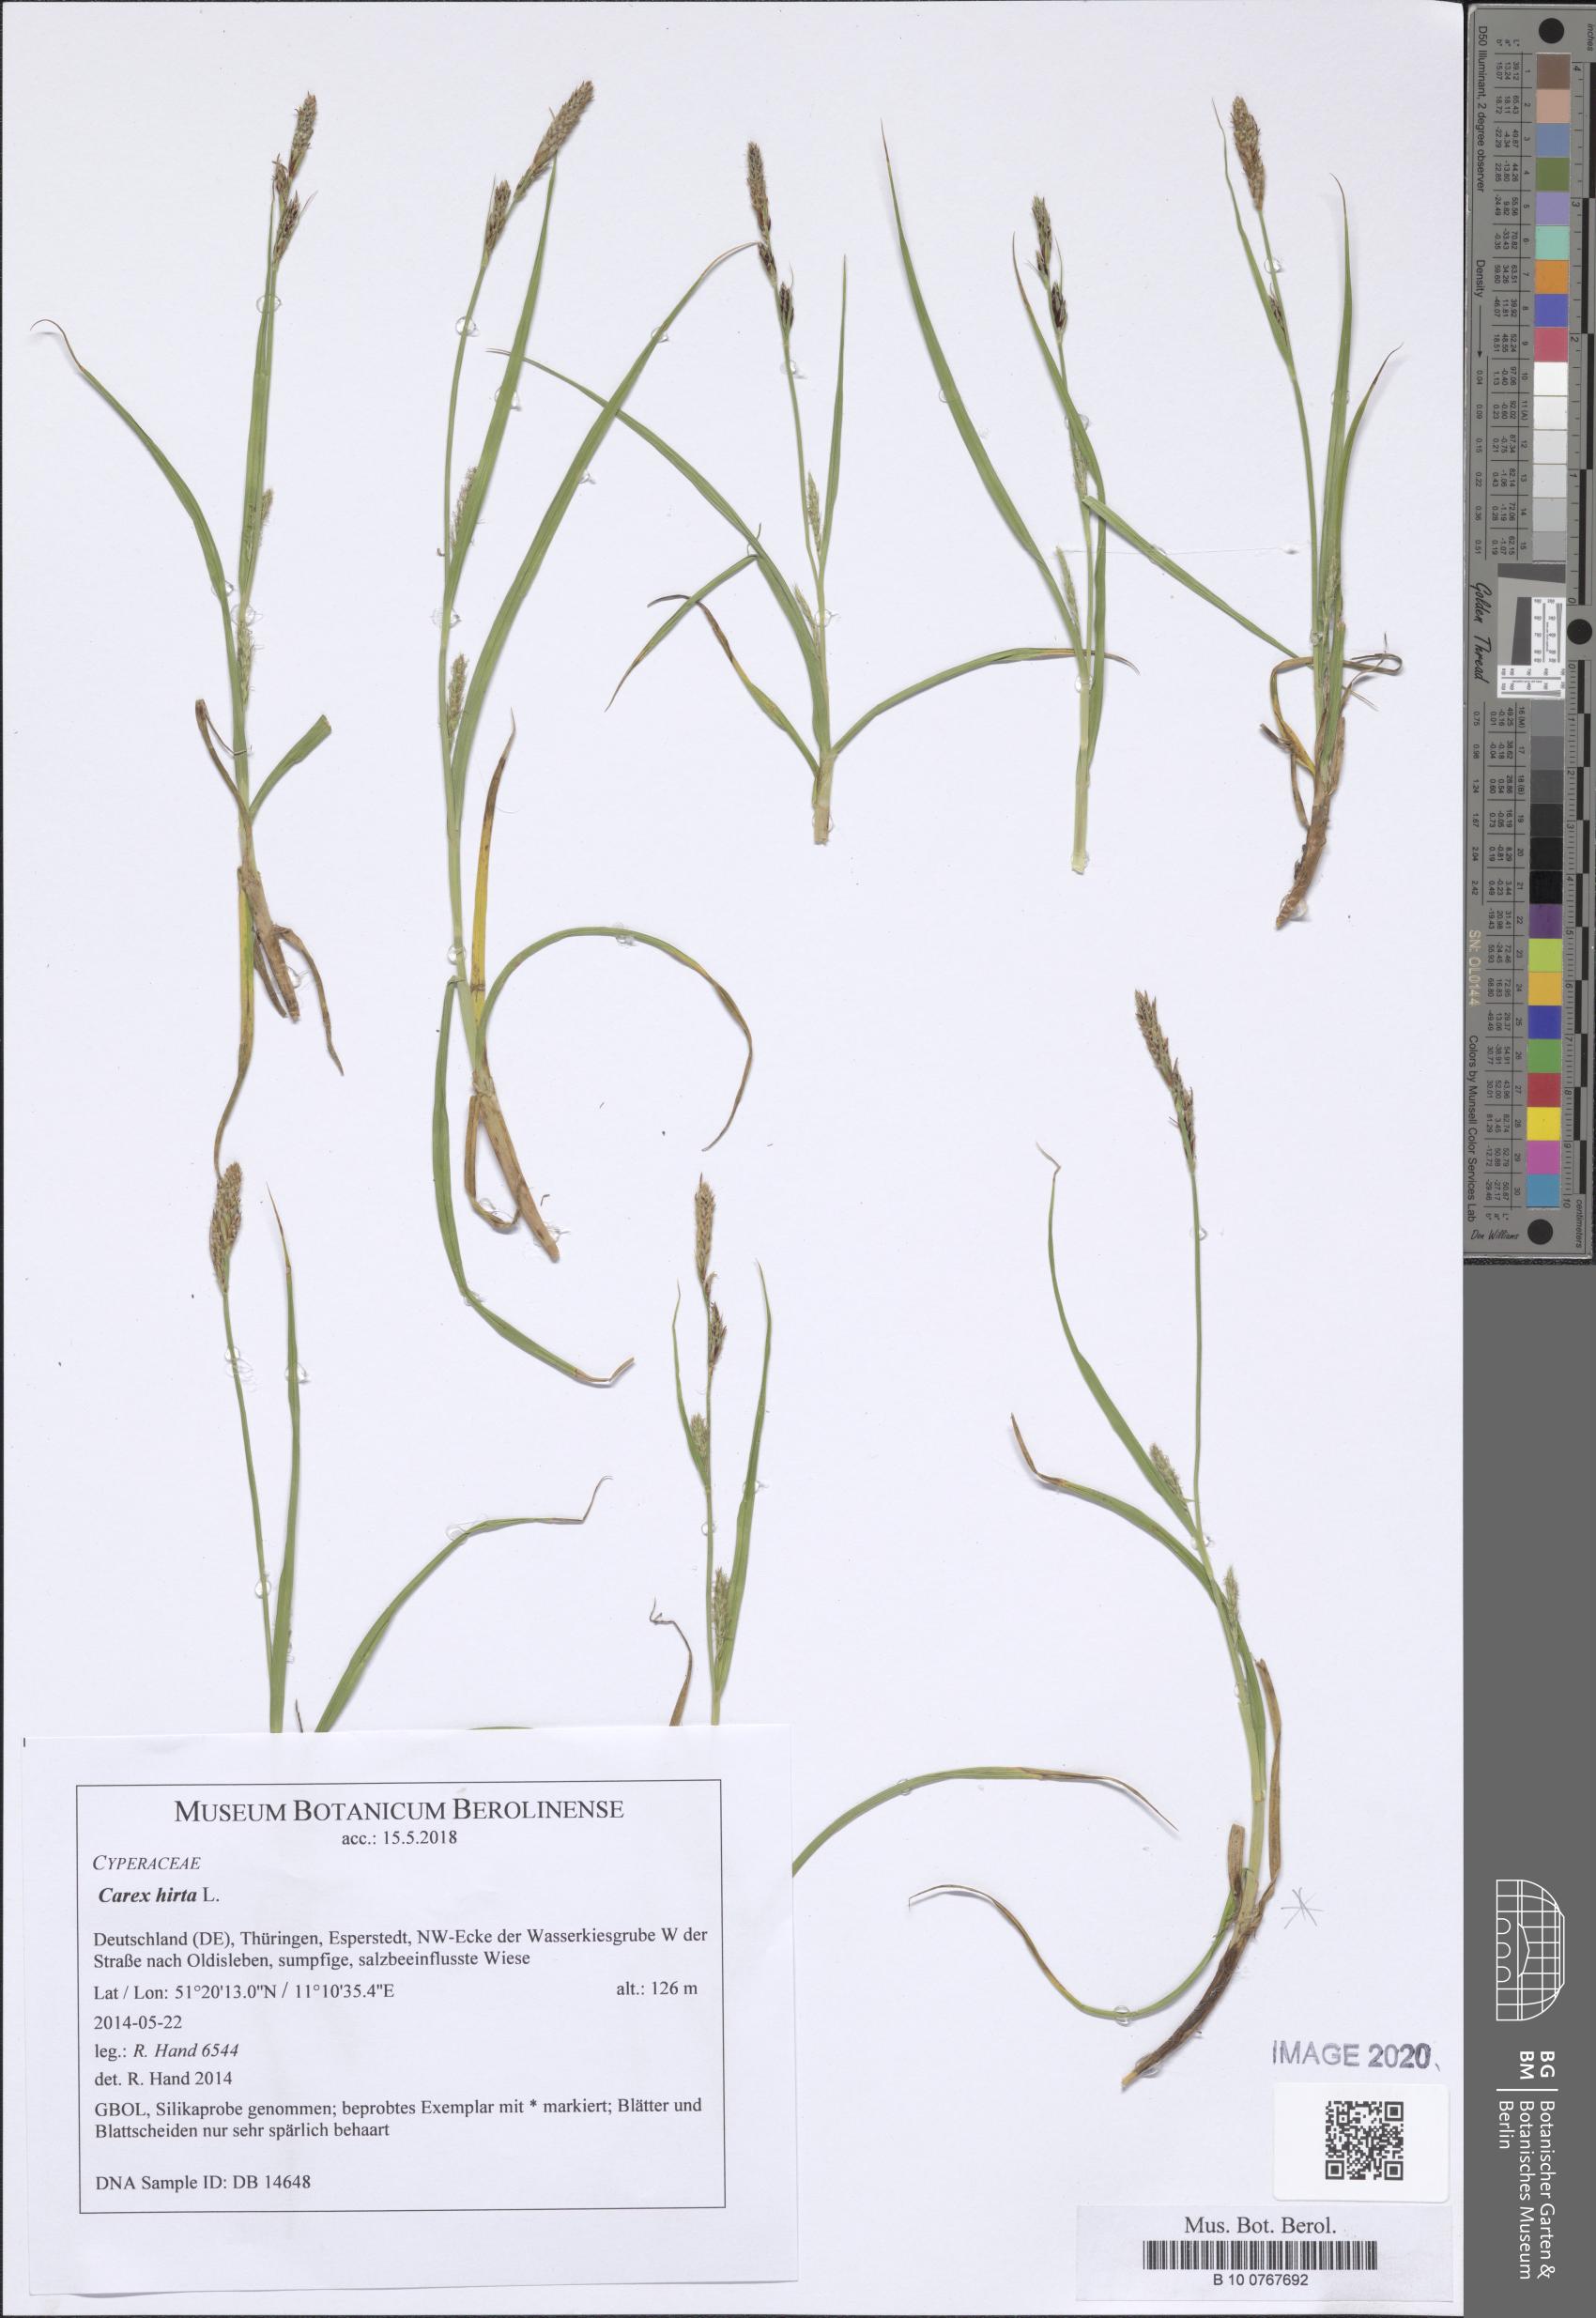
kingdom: Plantae
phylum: Tracheophyta
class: Liliopsida
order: Poales
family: Cyperaceae
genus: Carex
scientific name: Carex hirta
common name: Hairy sedge
